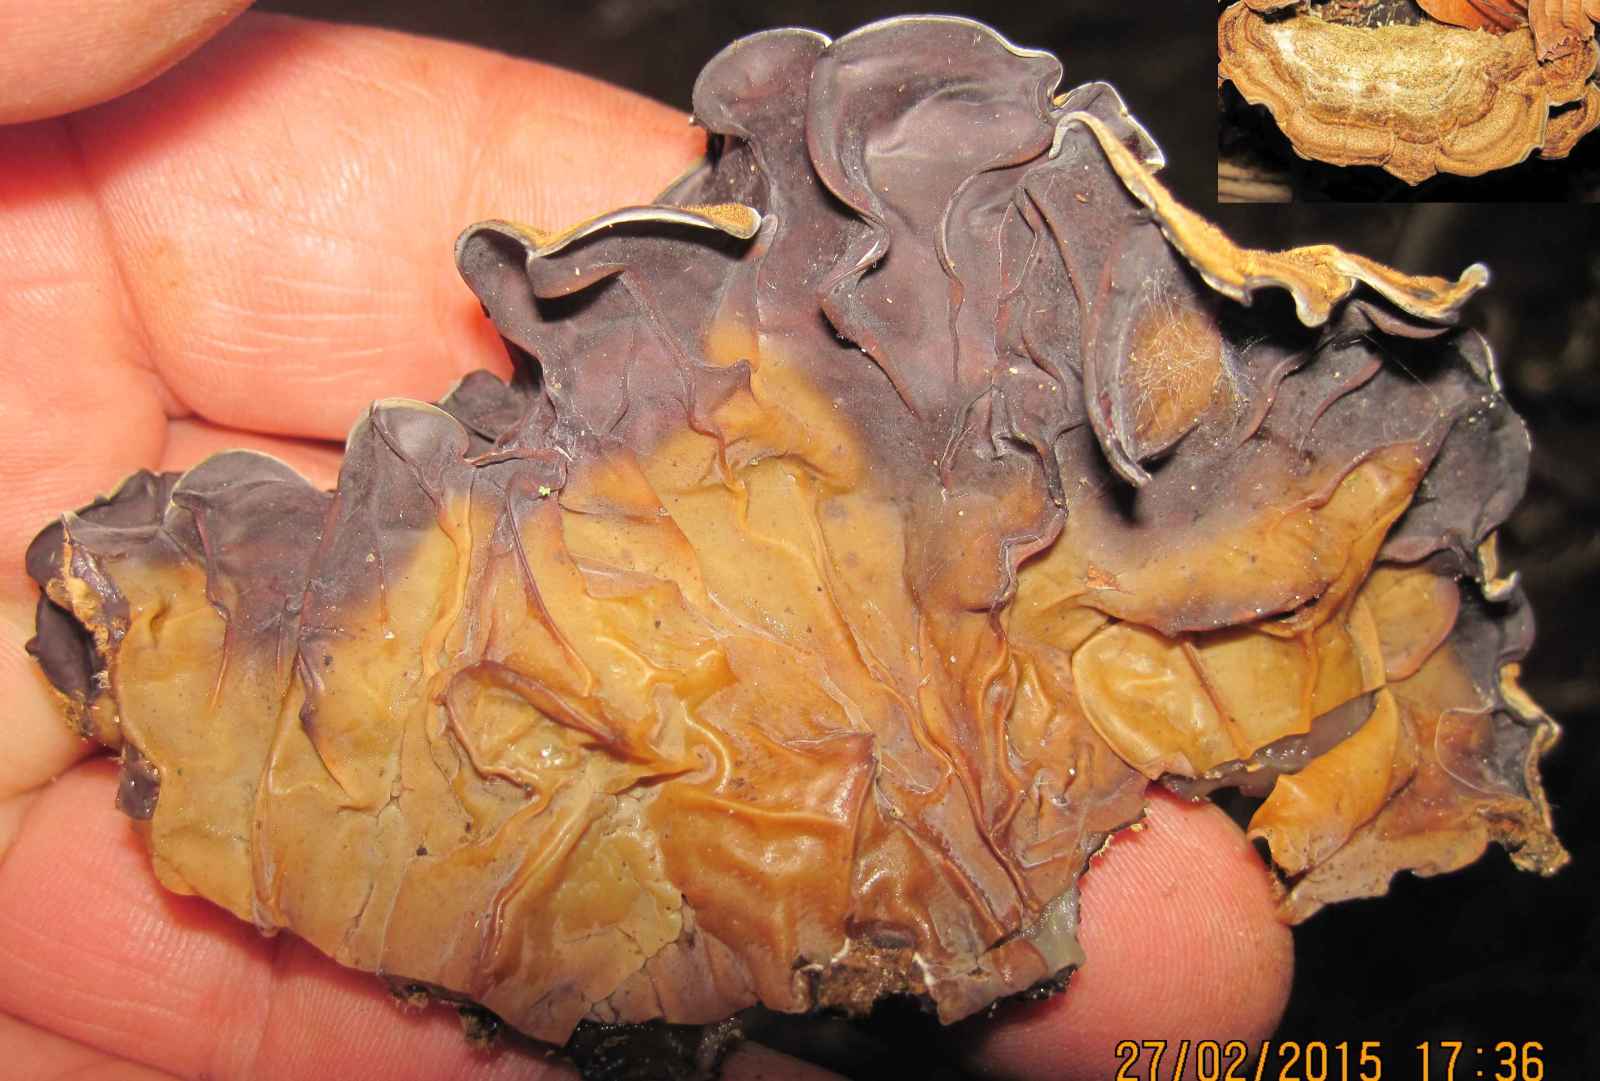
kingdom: Fungi
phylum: Basidiomycota
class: Agaricomycetes
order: Auriculariales
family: Auriculariaceae
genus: Auricularia
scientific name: Auricularia mesenterica
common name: håret judasøre
